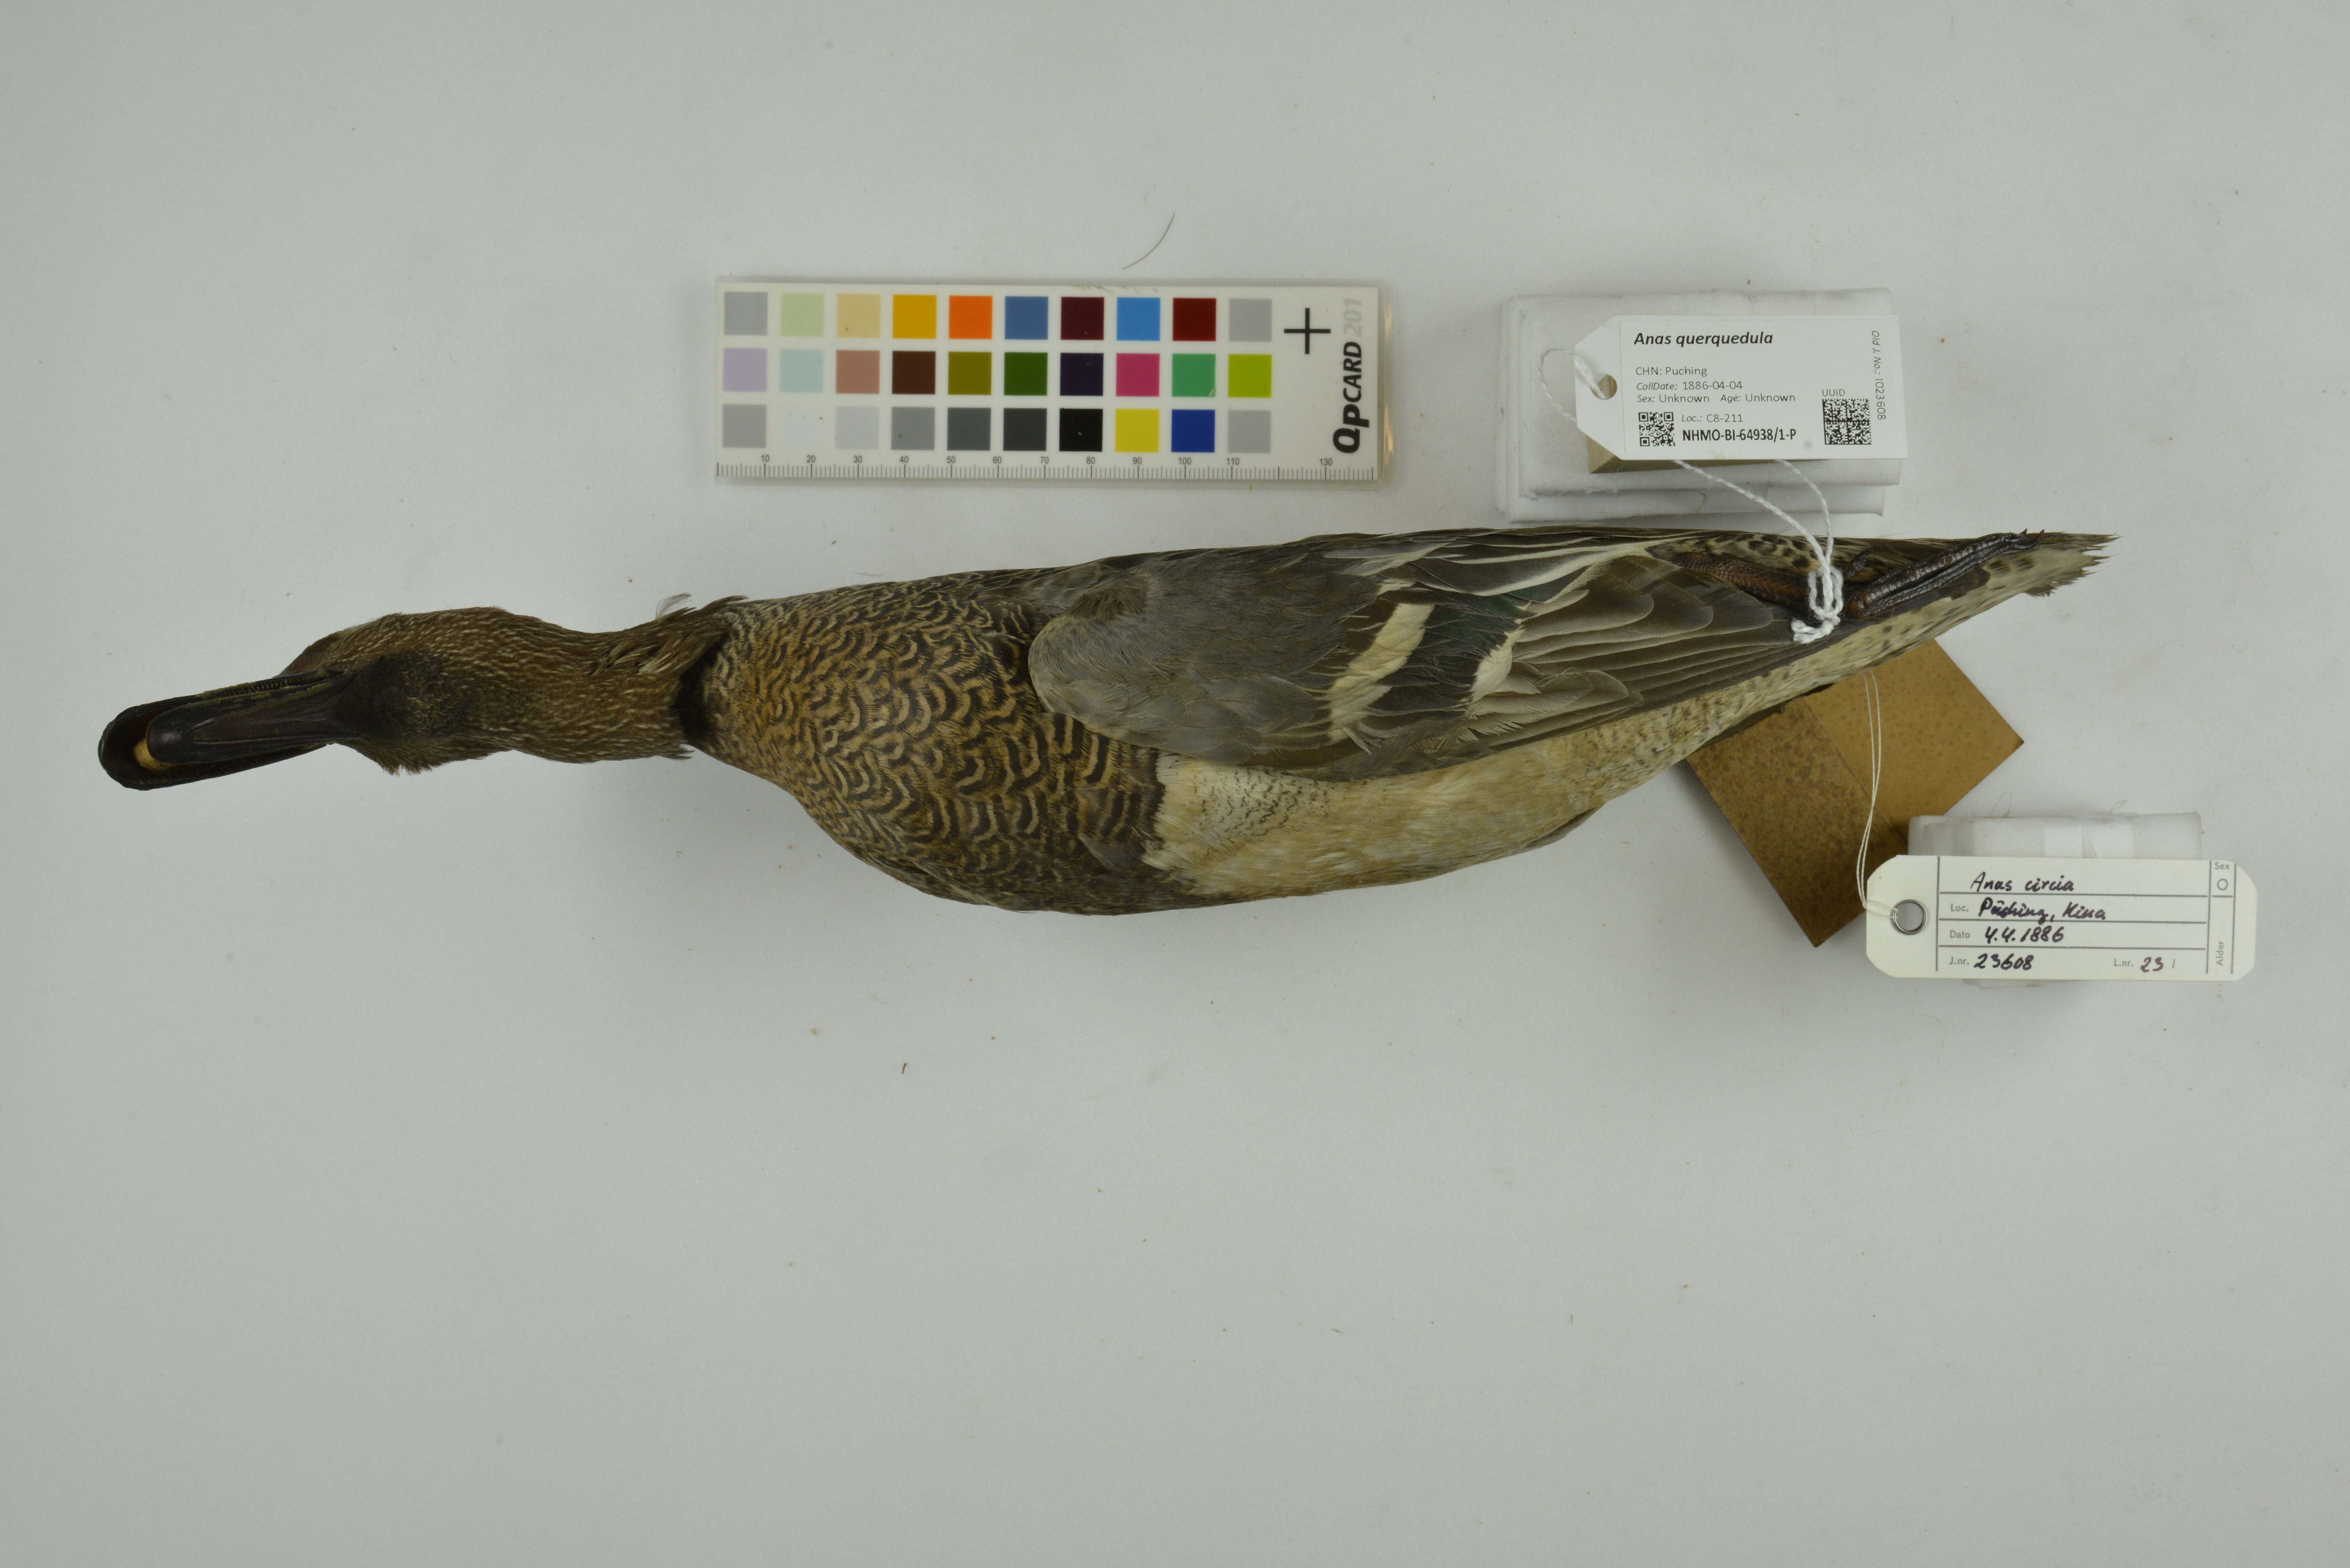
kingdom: Animalia
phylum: Chordata
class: Aves
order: Anseriformes
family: Anatidae
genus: Spatula
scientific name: Spatula querquedula
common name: Garganey
